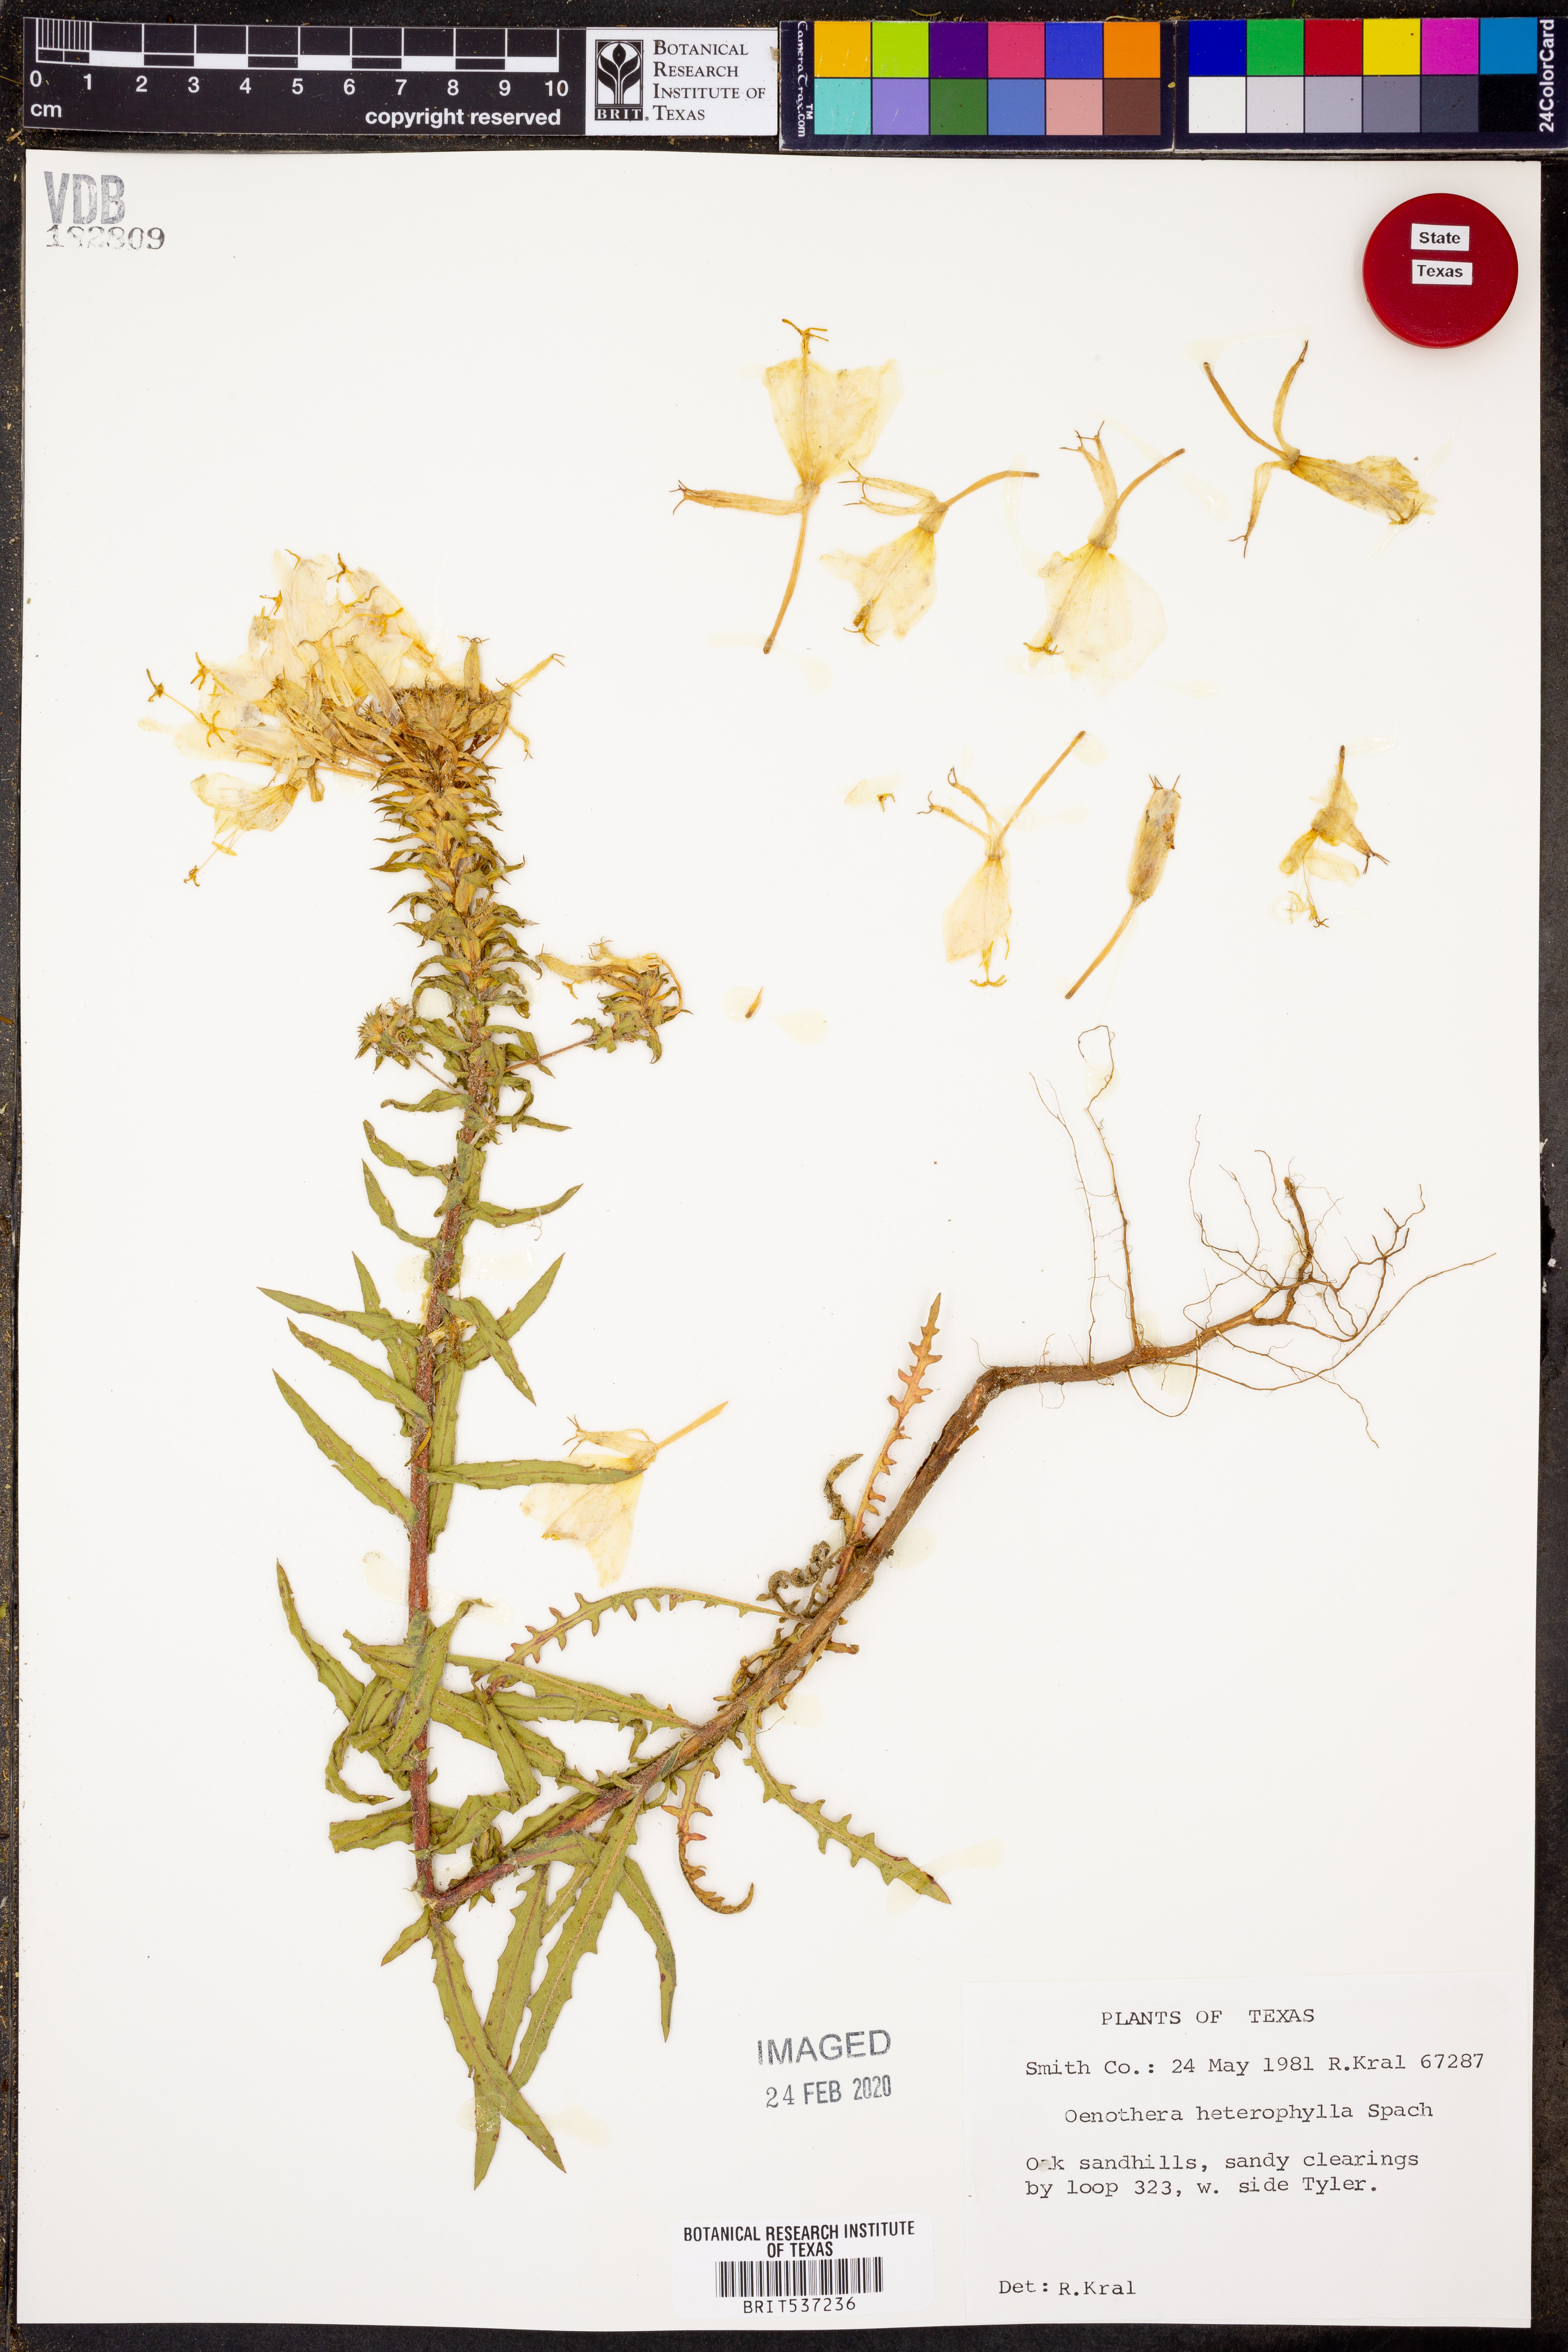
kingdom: Plantae
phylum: Tracheophyta
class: Magnoliopsida
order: Myrtales
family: Onagraceae
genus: Camissonia
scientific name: Camissonia dentata
